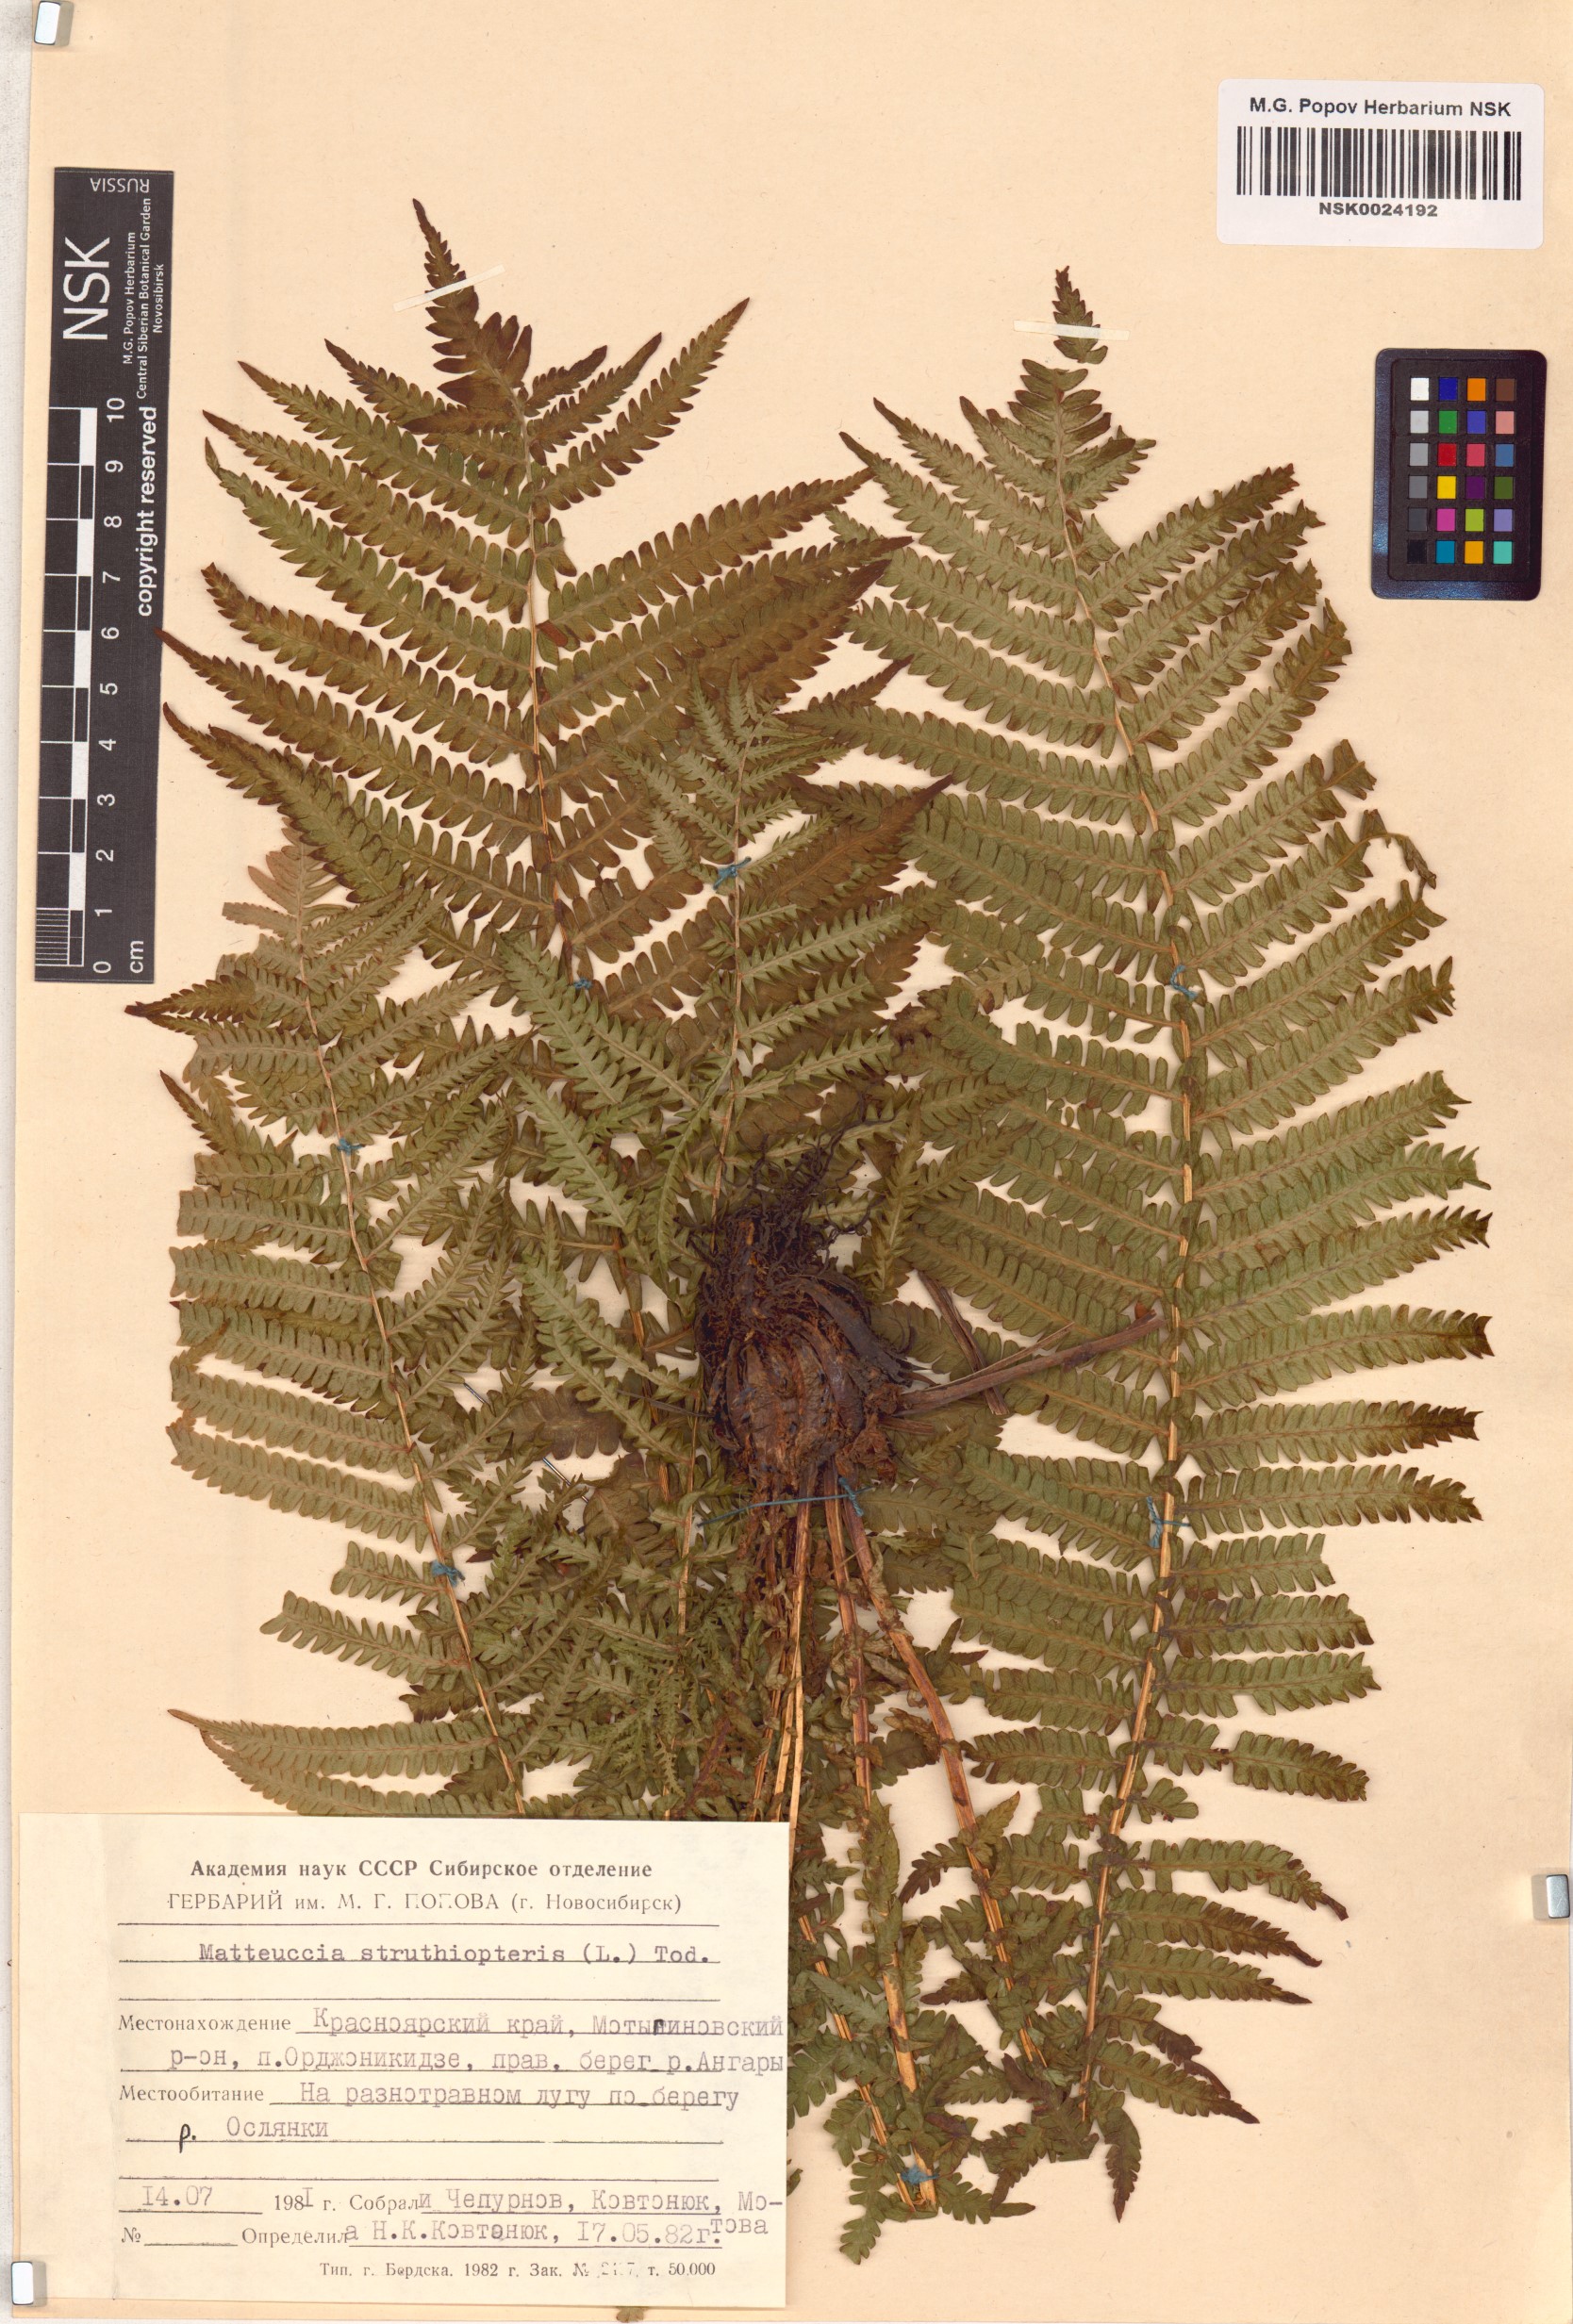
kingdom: Plantae
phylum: Tracheophyta
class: Polypodiopsida
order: Polypodiales
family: Onocleaceae
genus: Matteuccia
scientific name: Matteuccia struthiopteris
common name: Ostrich fern
